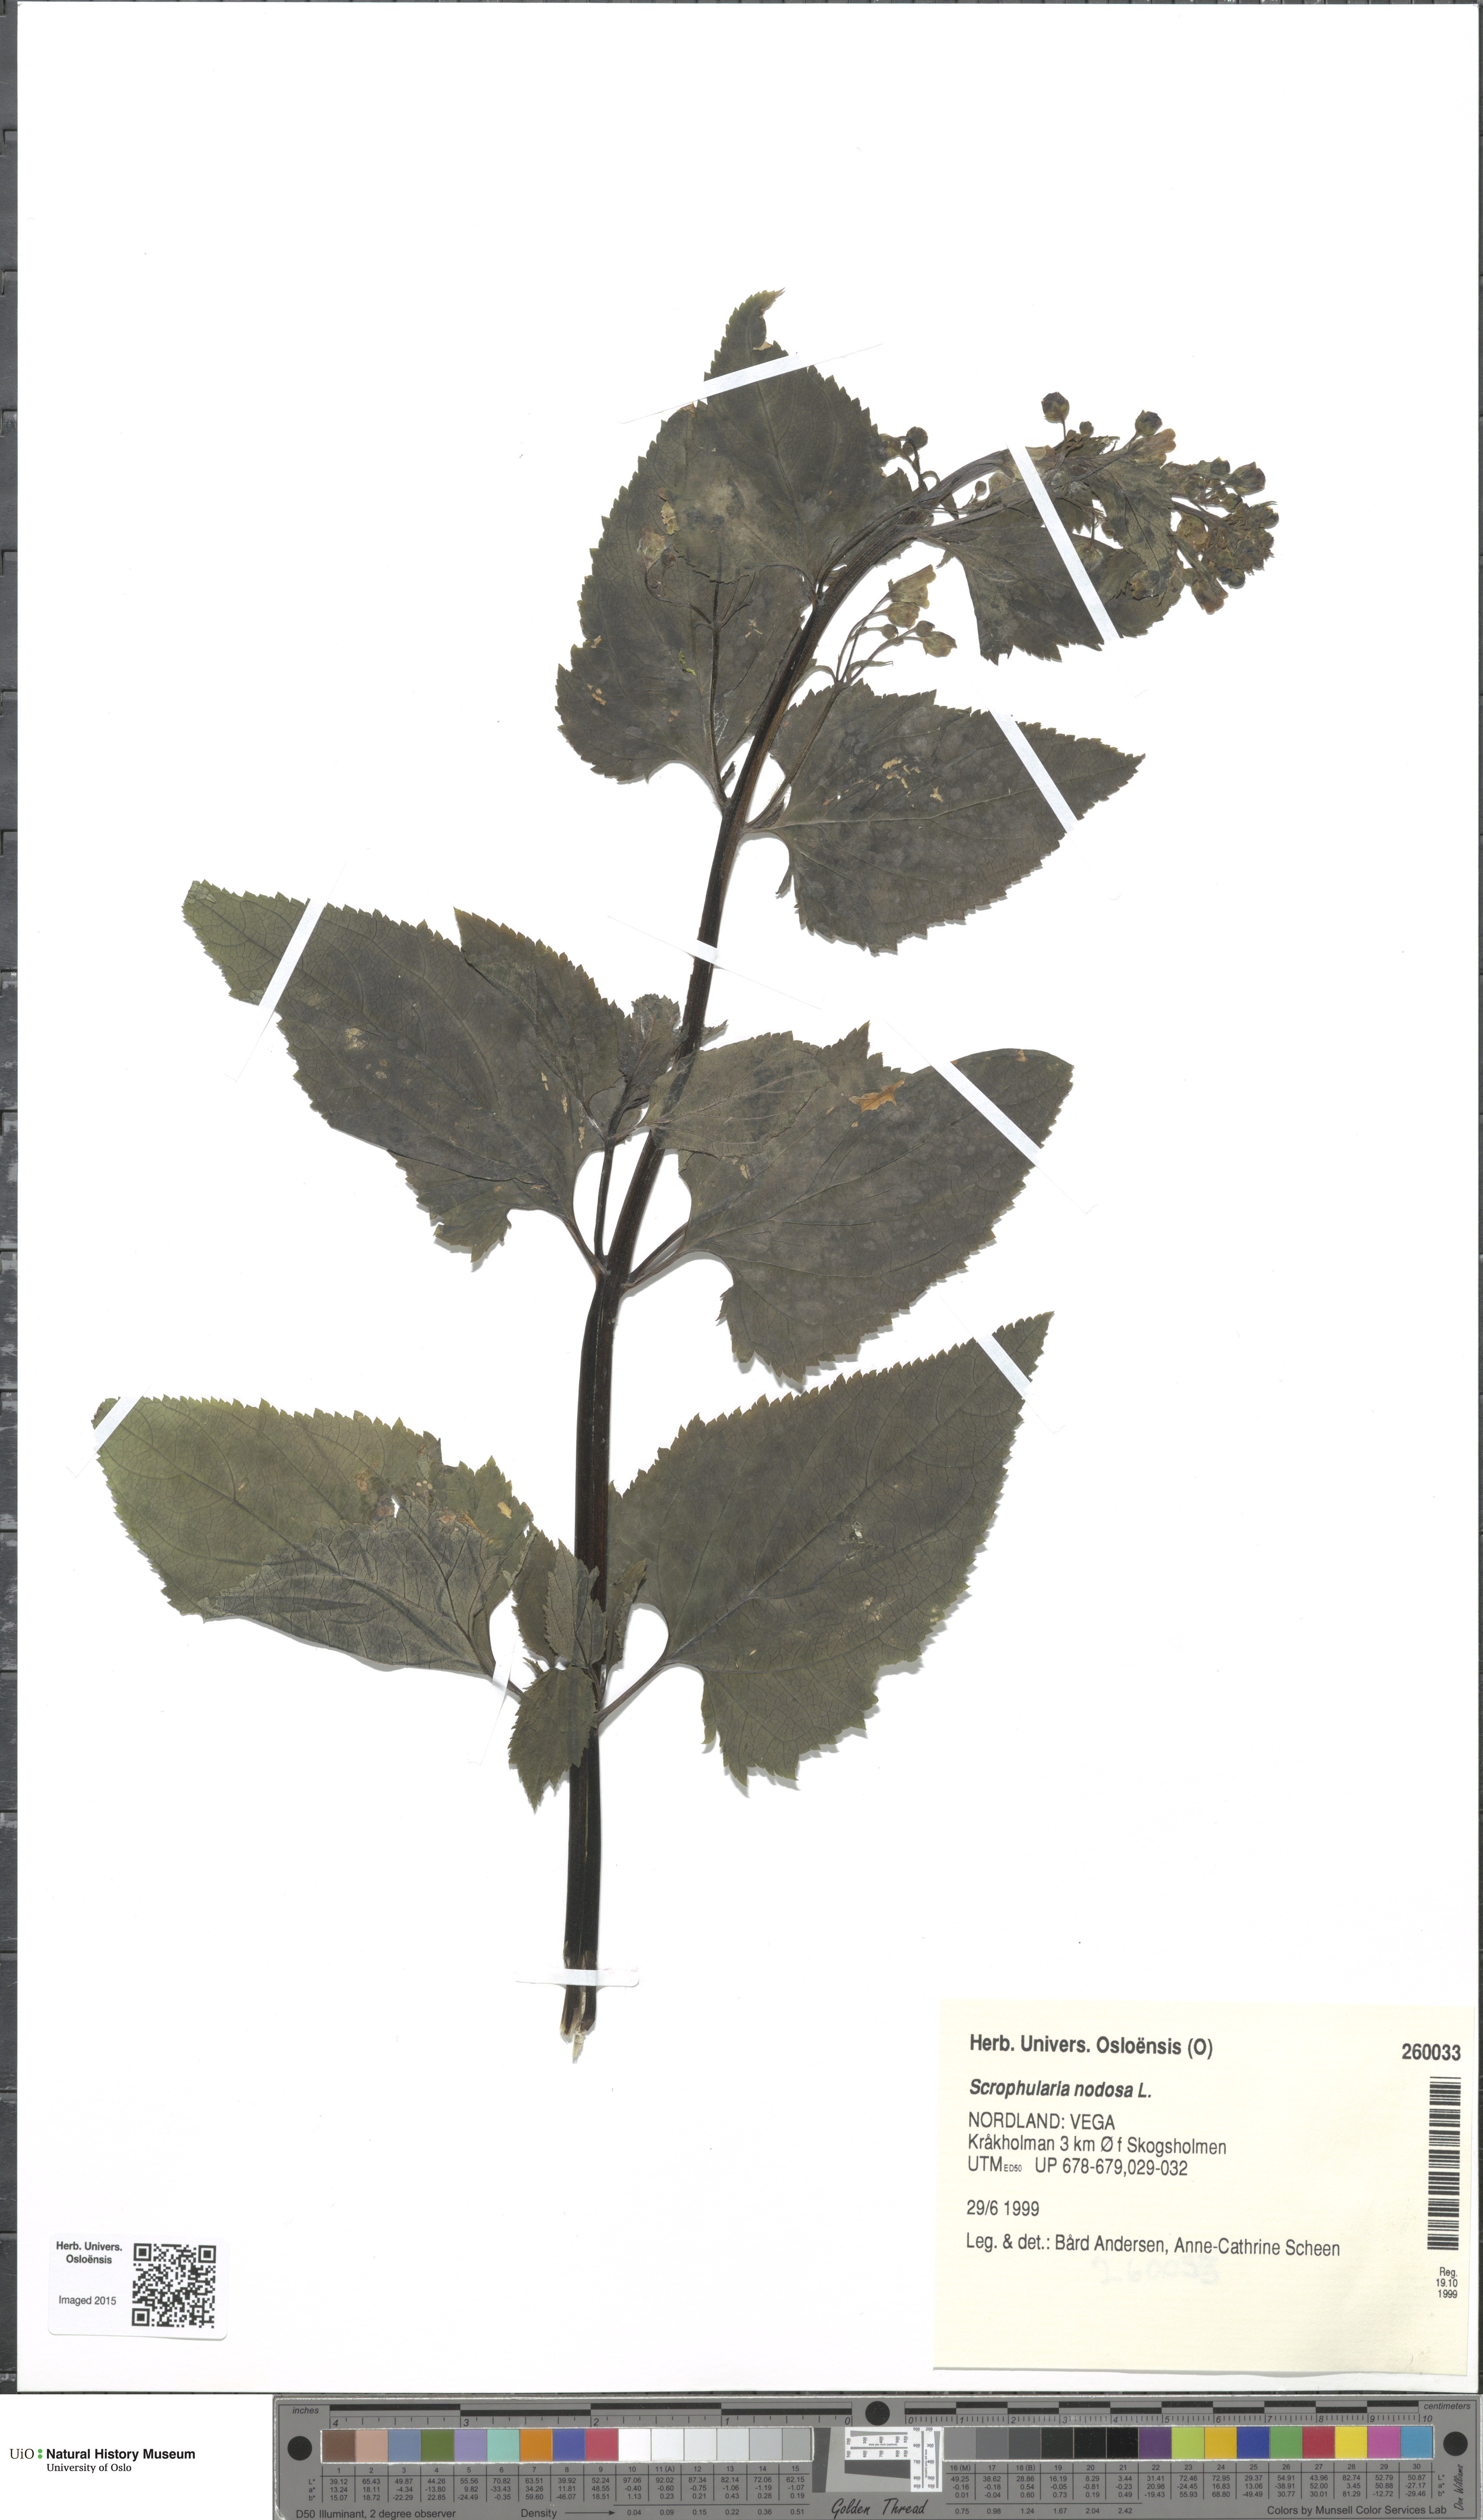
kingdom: Plantae
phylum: Tracheophyta
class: Magnoliopsida
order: Lamiales
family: Scrophulariaceae
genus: Scrophularia
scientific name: Scrophularia nodosa
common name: Common figwort
